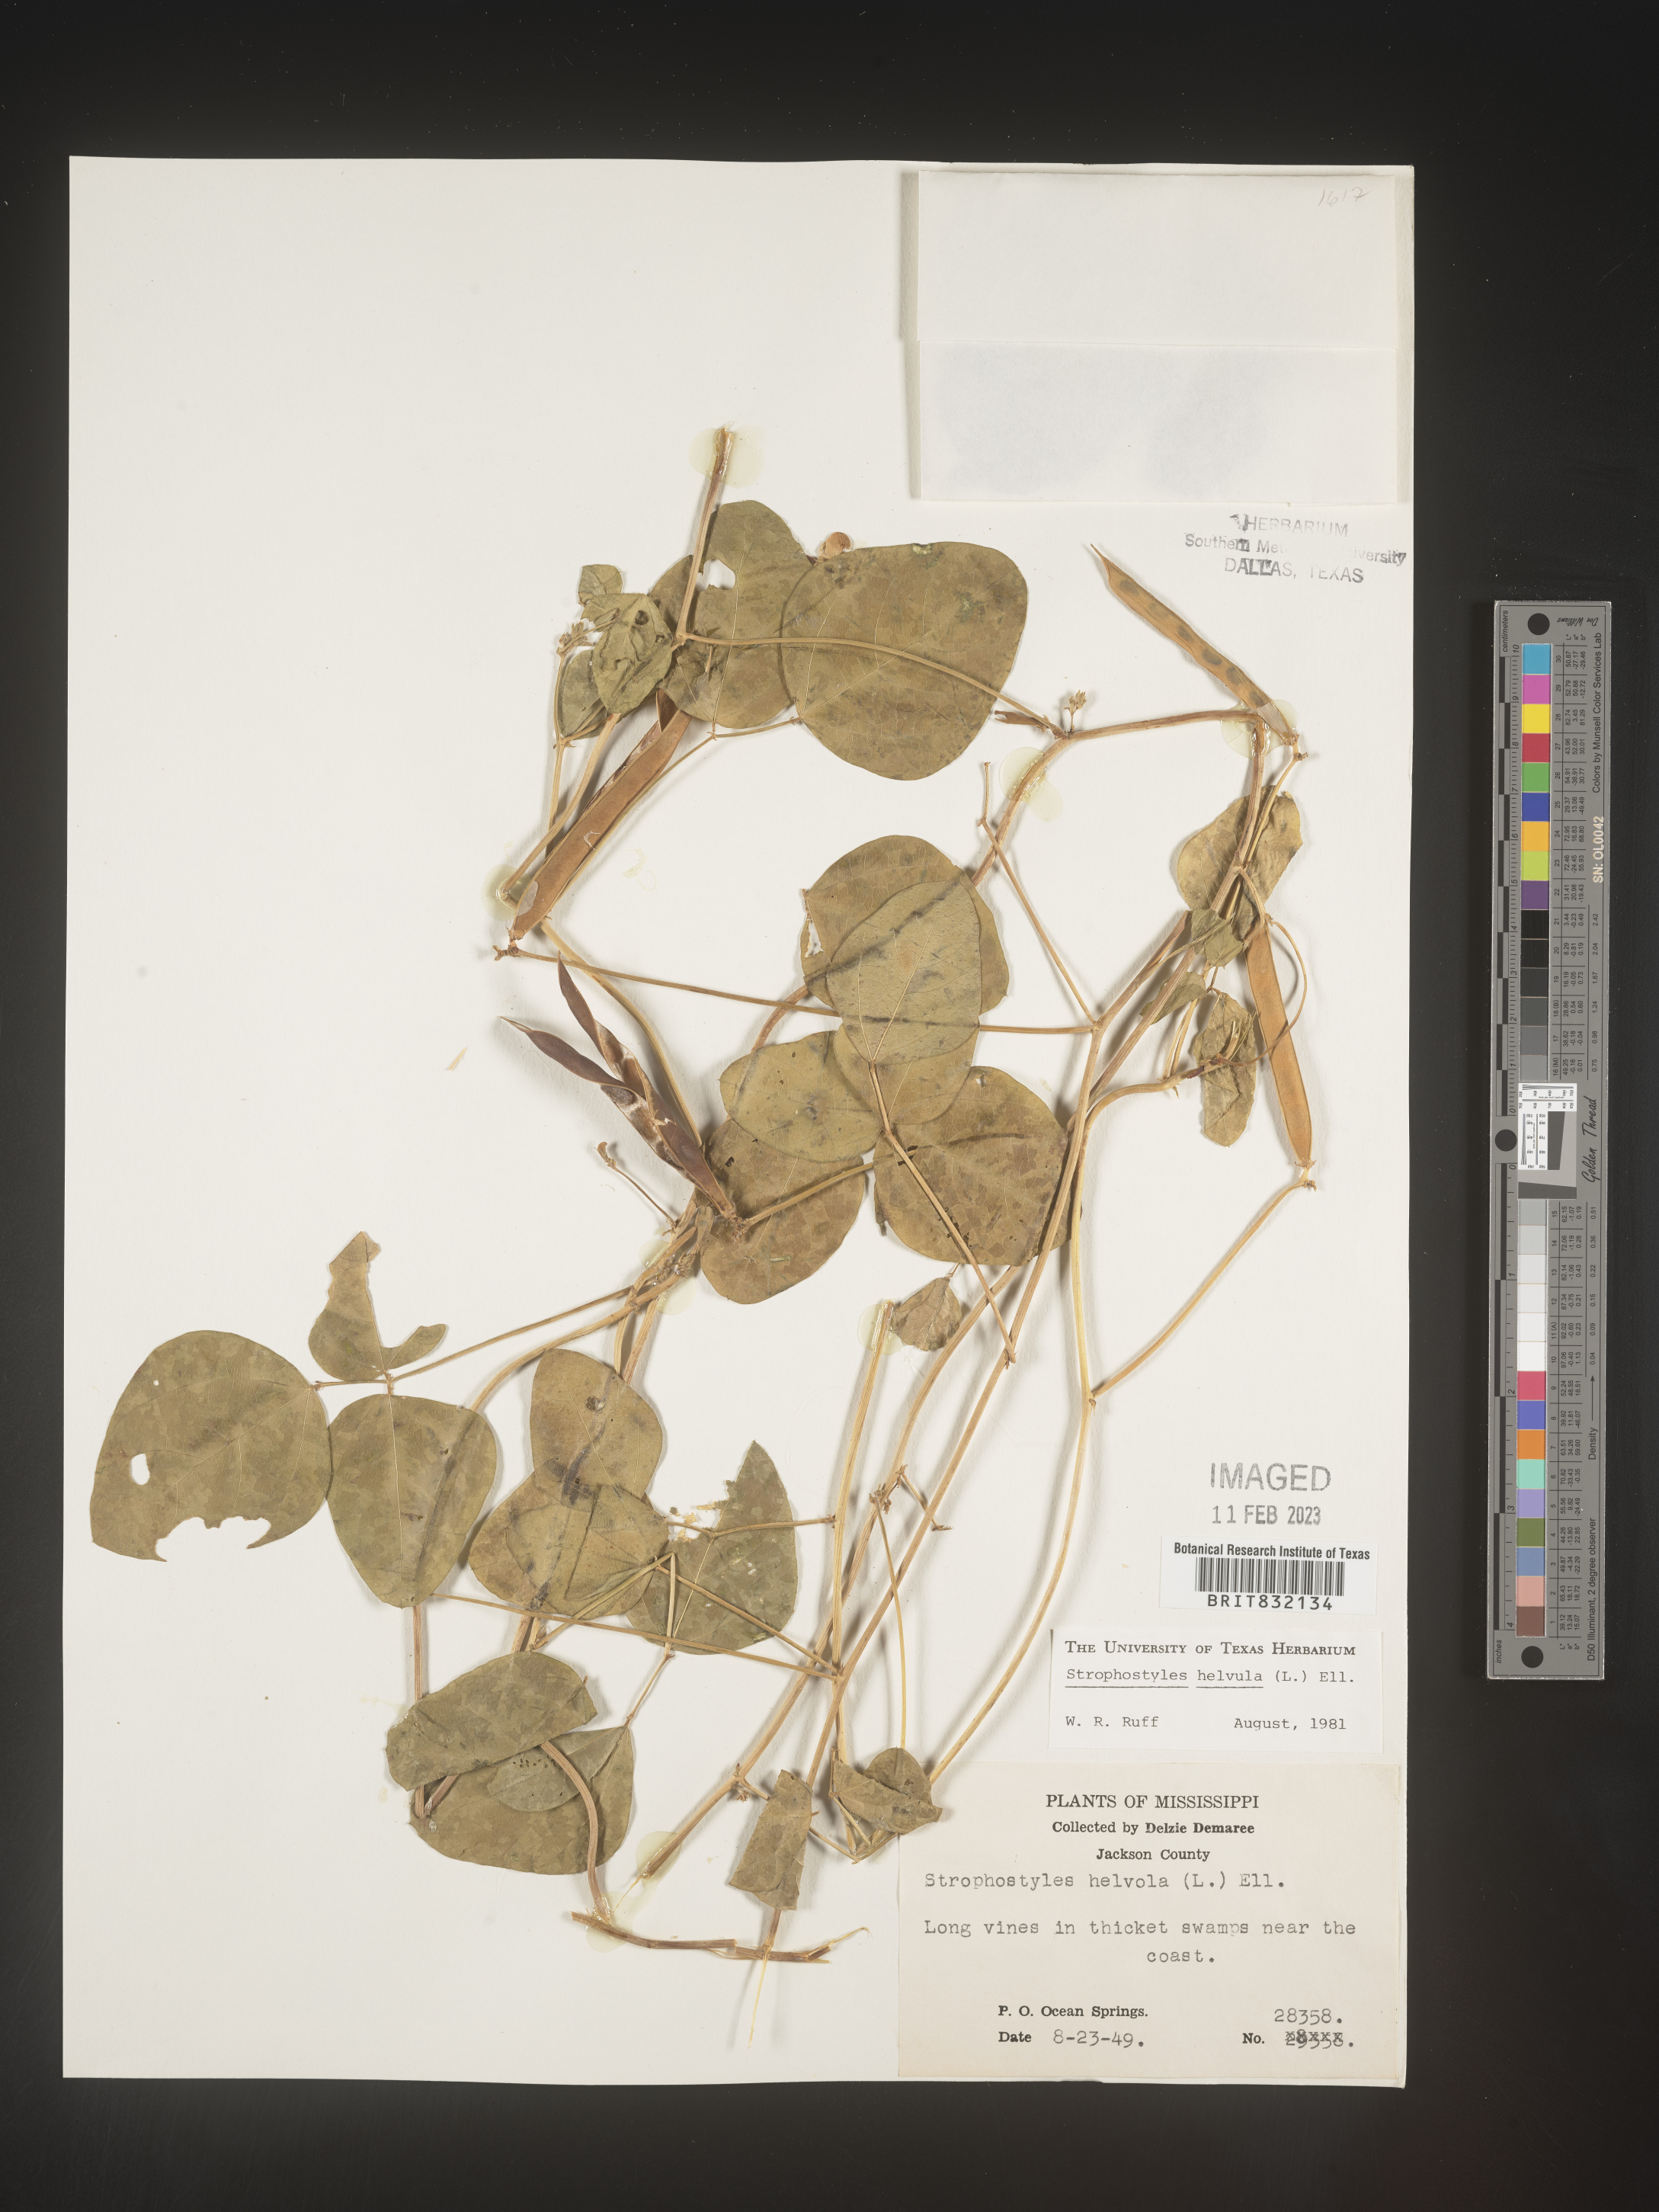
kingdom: Plantae
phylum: Tracheophyta
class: Magnoliopsida
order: Fabales
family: Fabaceae
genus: Strophostyles
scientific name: Strophostyles helvola
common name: Trailing wild bean
